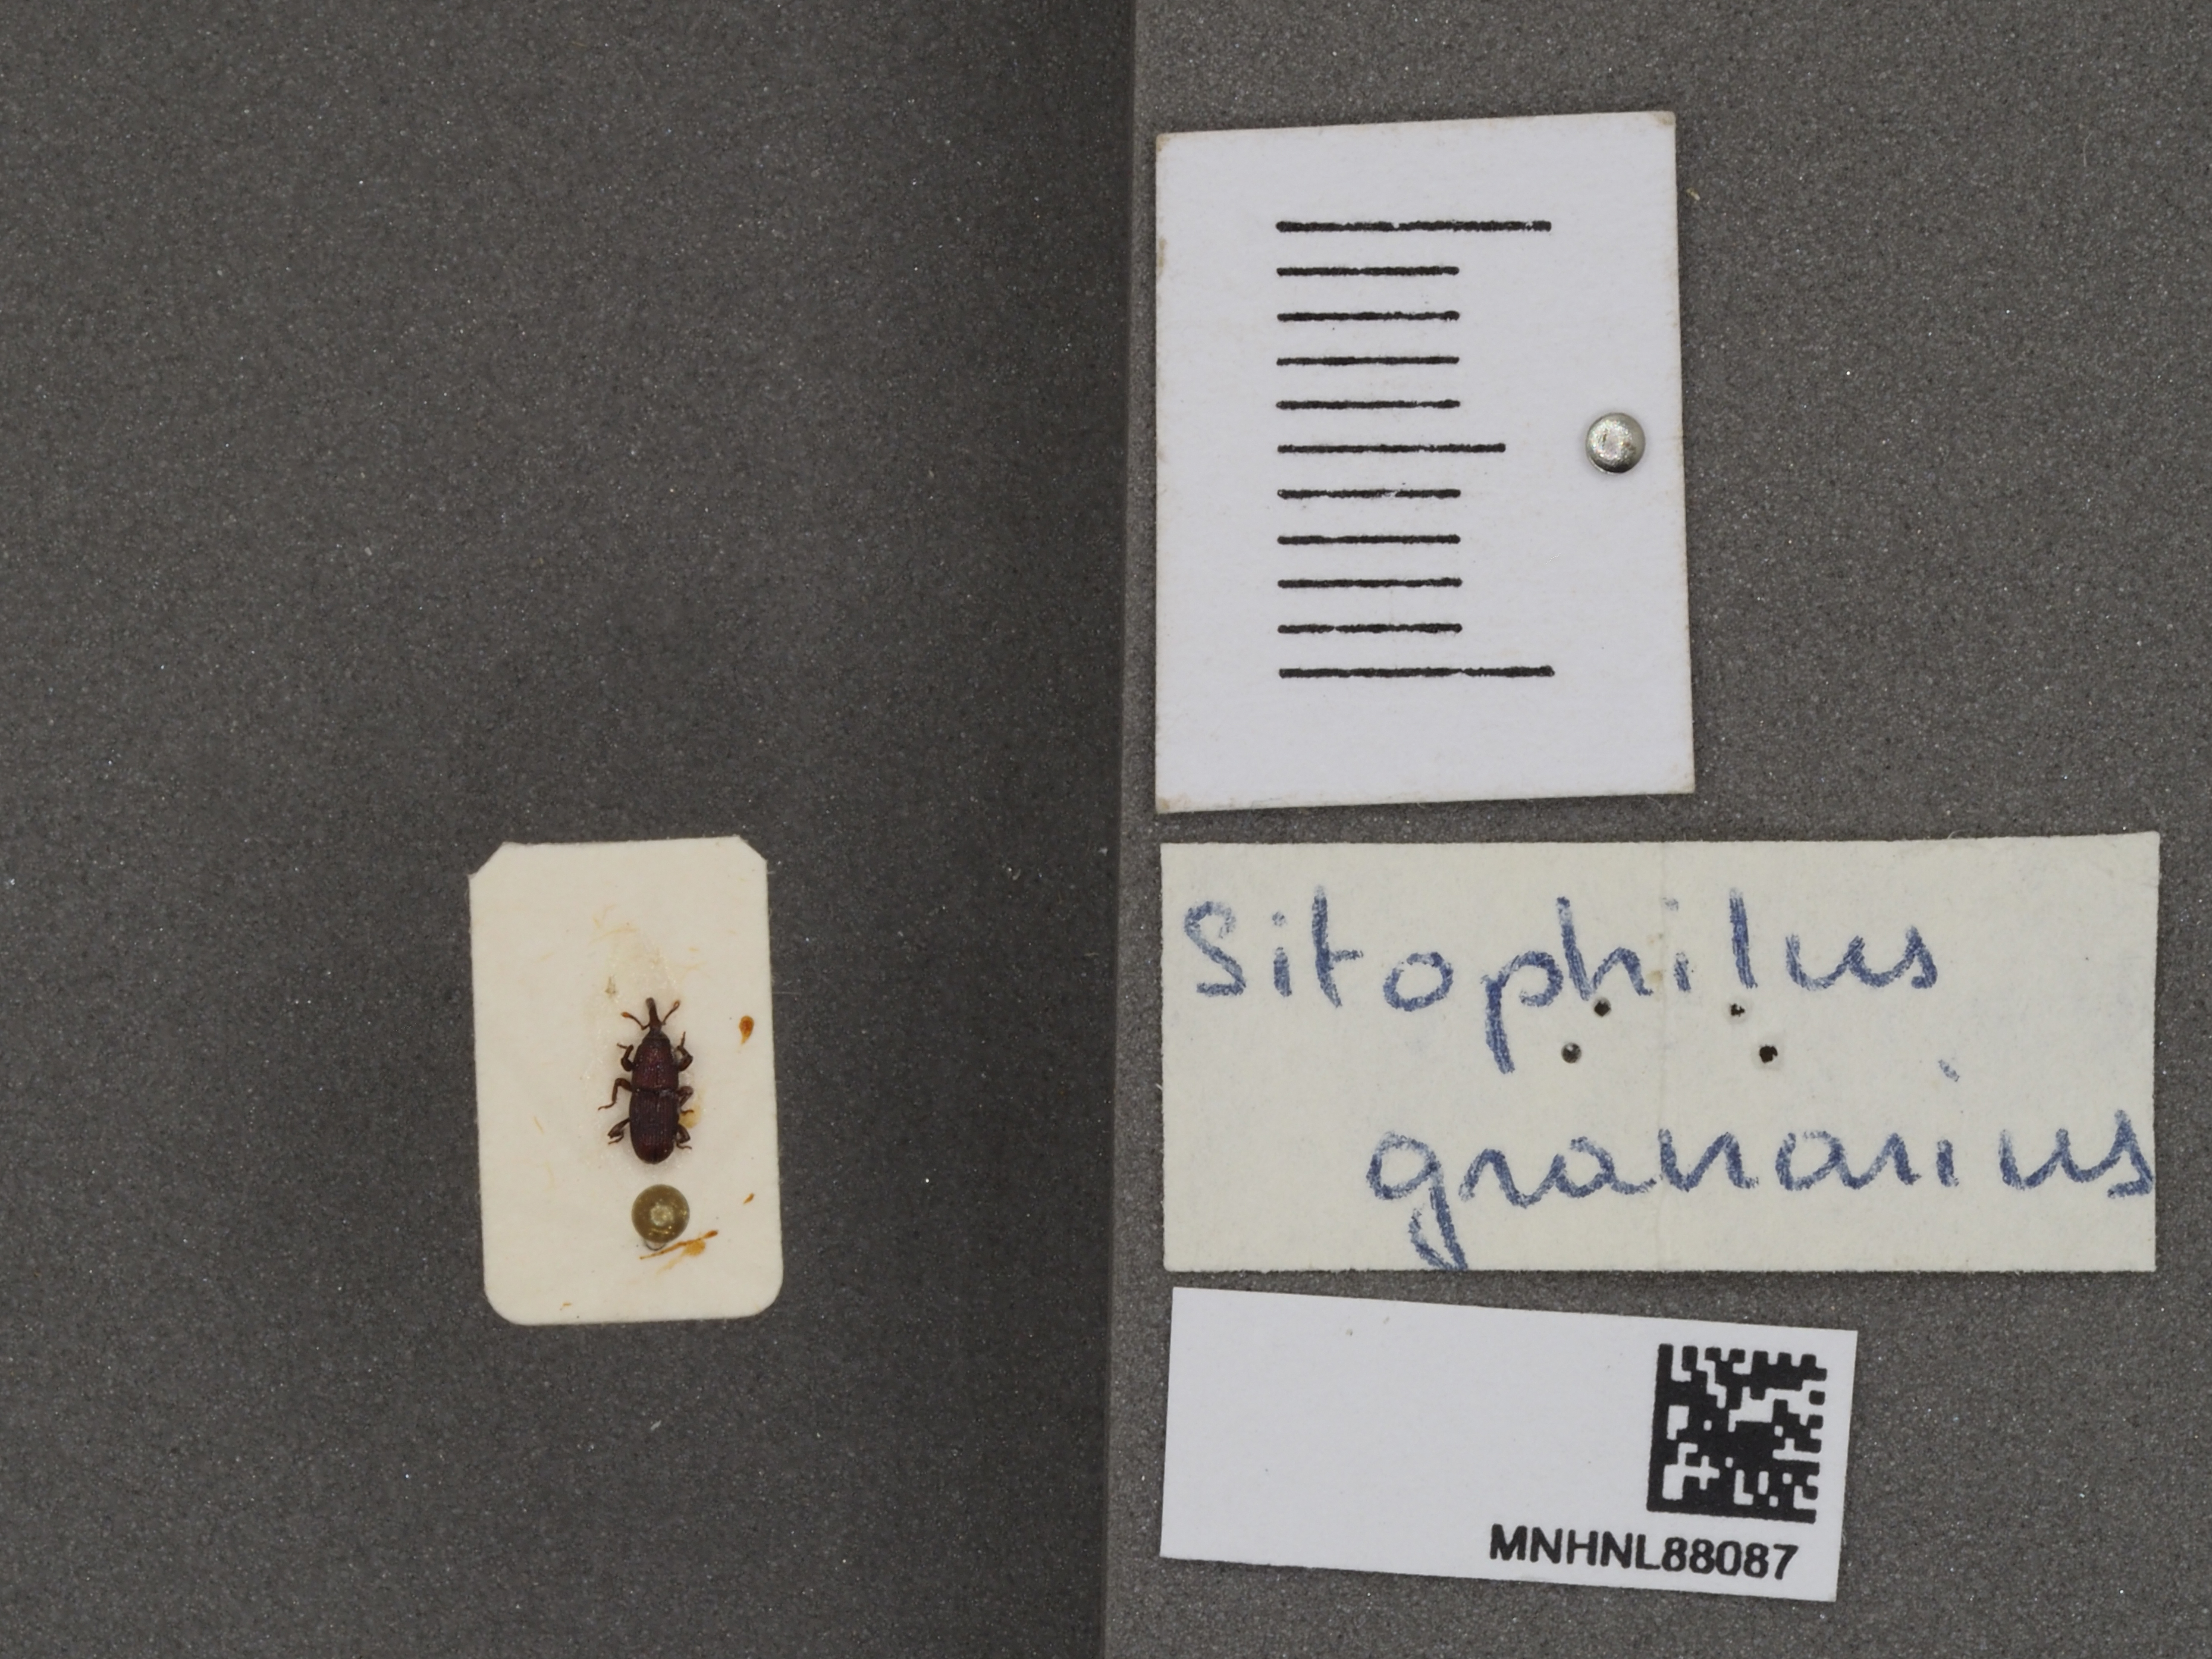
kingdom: Animalia
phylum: Arthropoda
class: Insecta
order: Coleoptera
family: Dryophthoridae
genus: Sitophilus
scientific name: Sitophilus granarius
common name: Granary weevil
